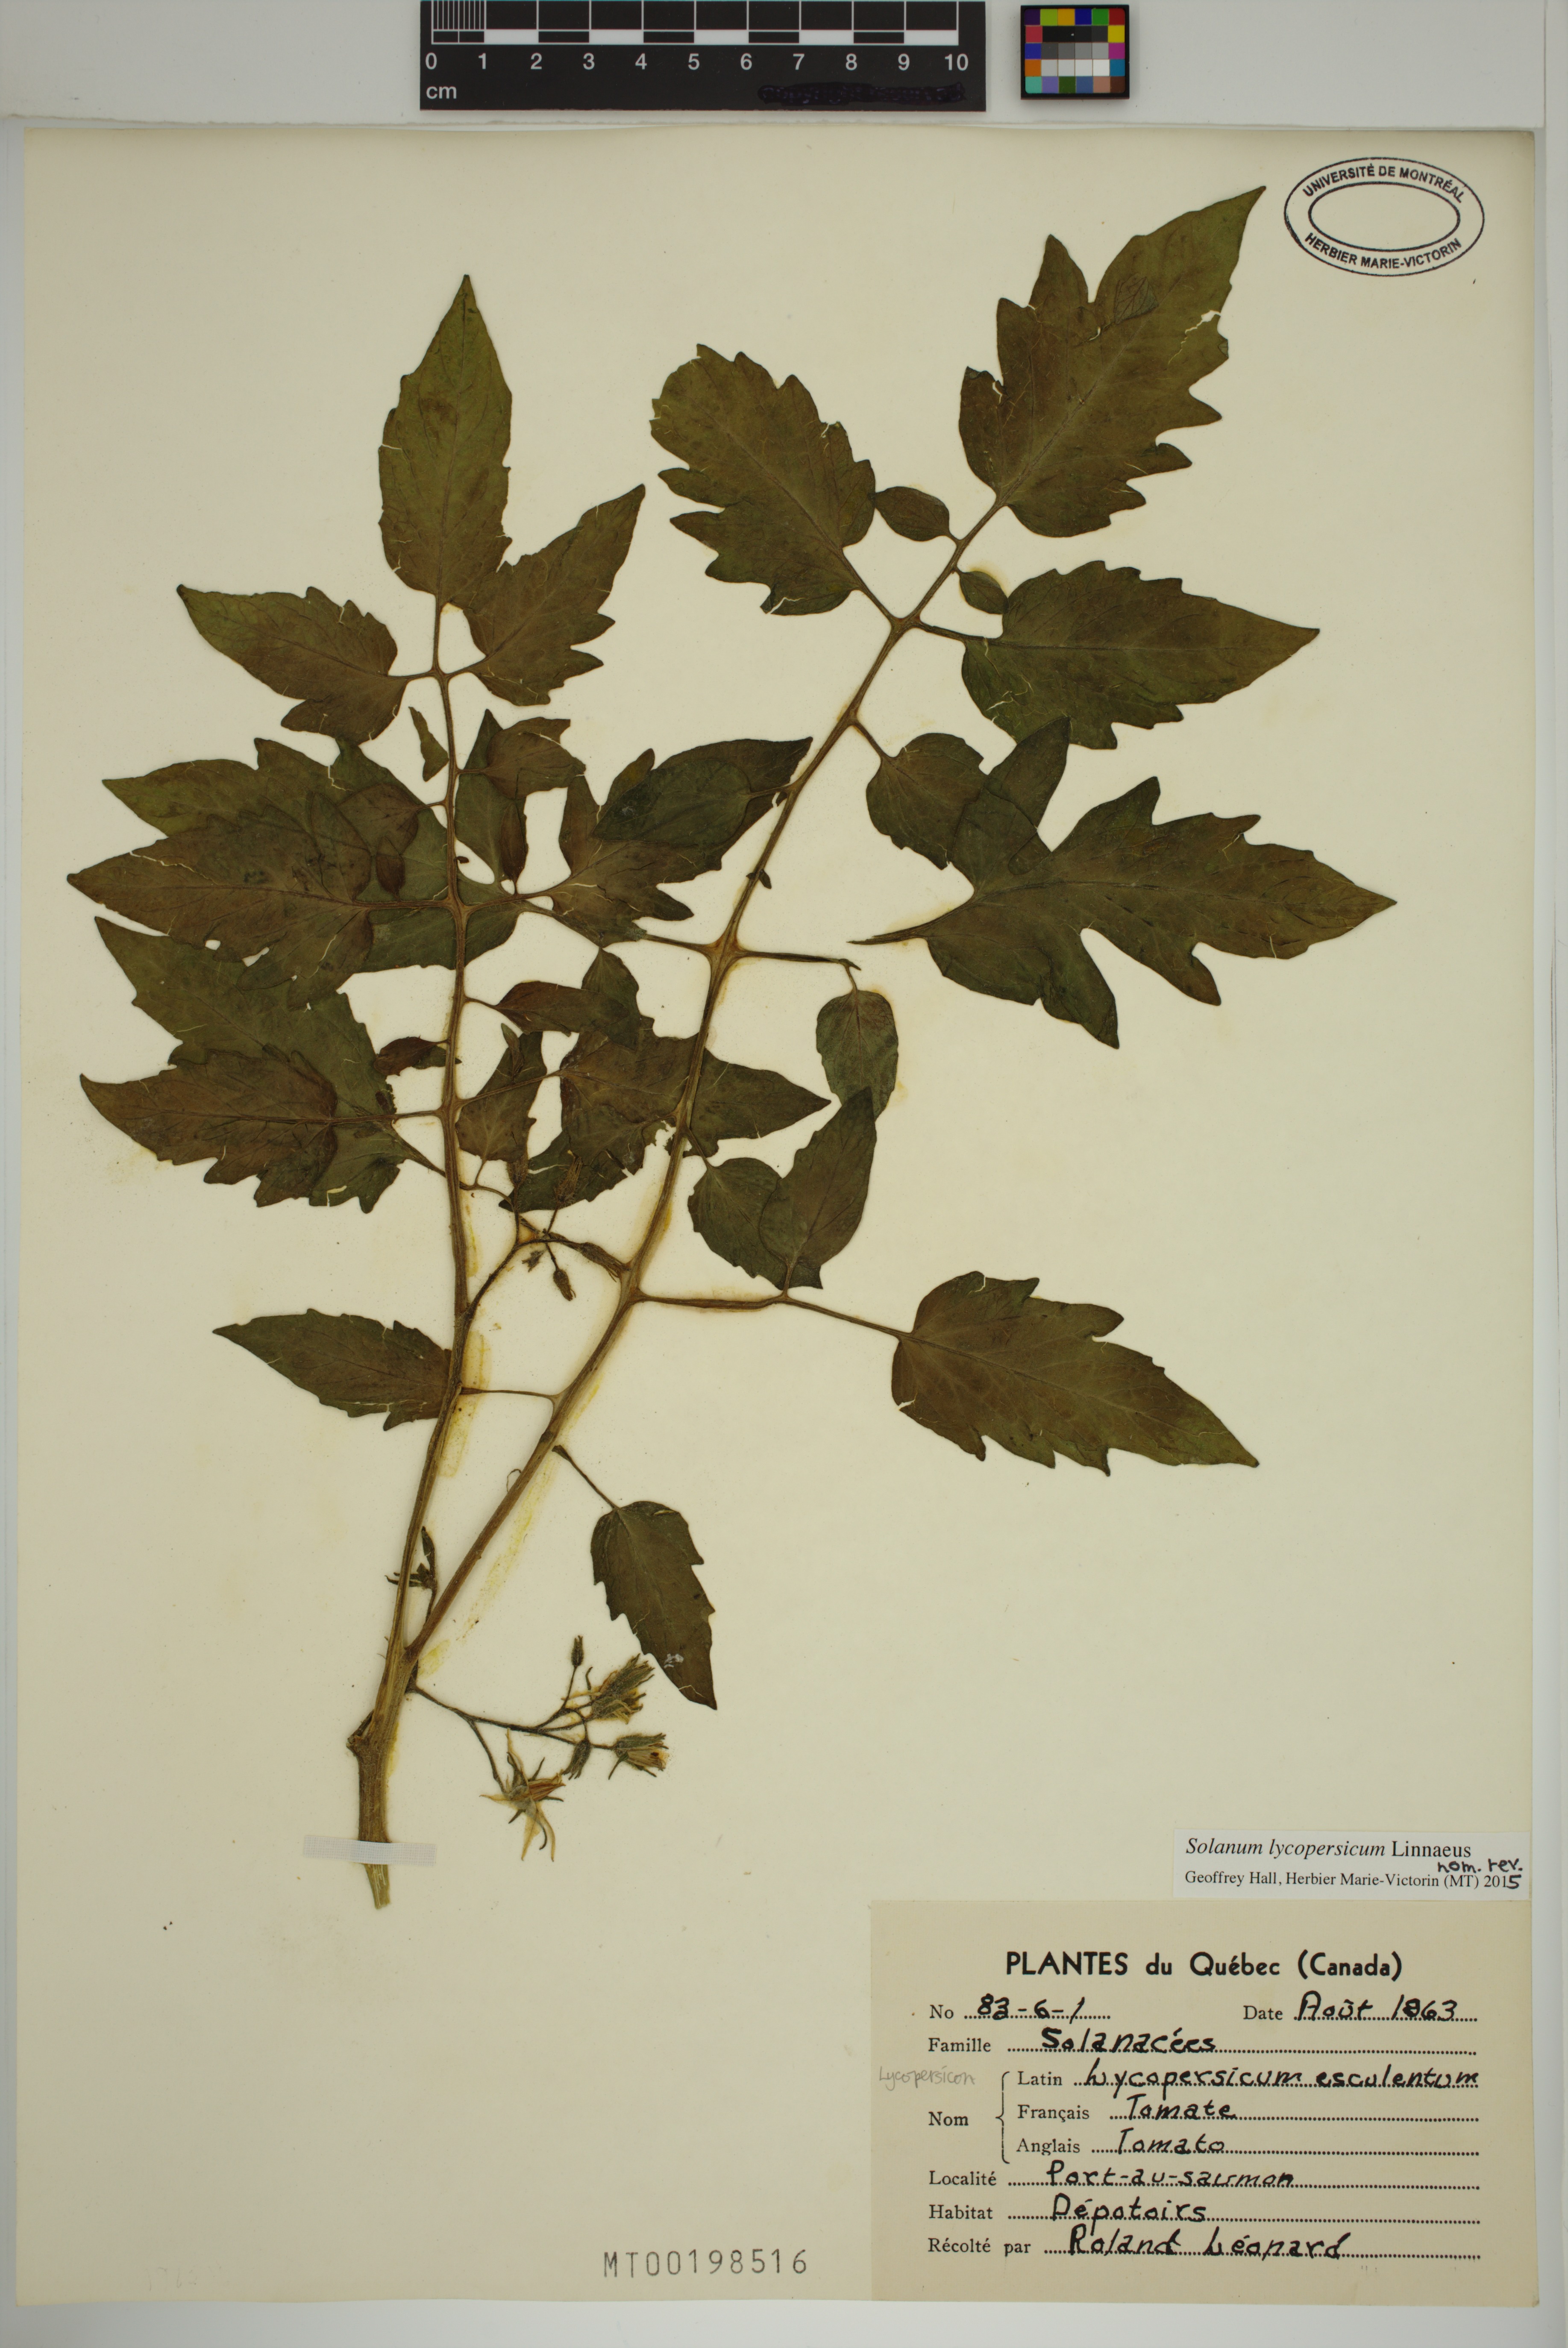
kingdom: Plantae
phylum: Tracheophyta
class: Magnoliopsida
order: Solanales
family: Solanaceae
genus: Solanum
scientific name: Solanum lycopersicum
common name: Garden tomato
